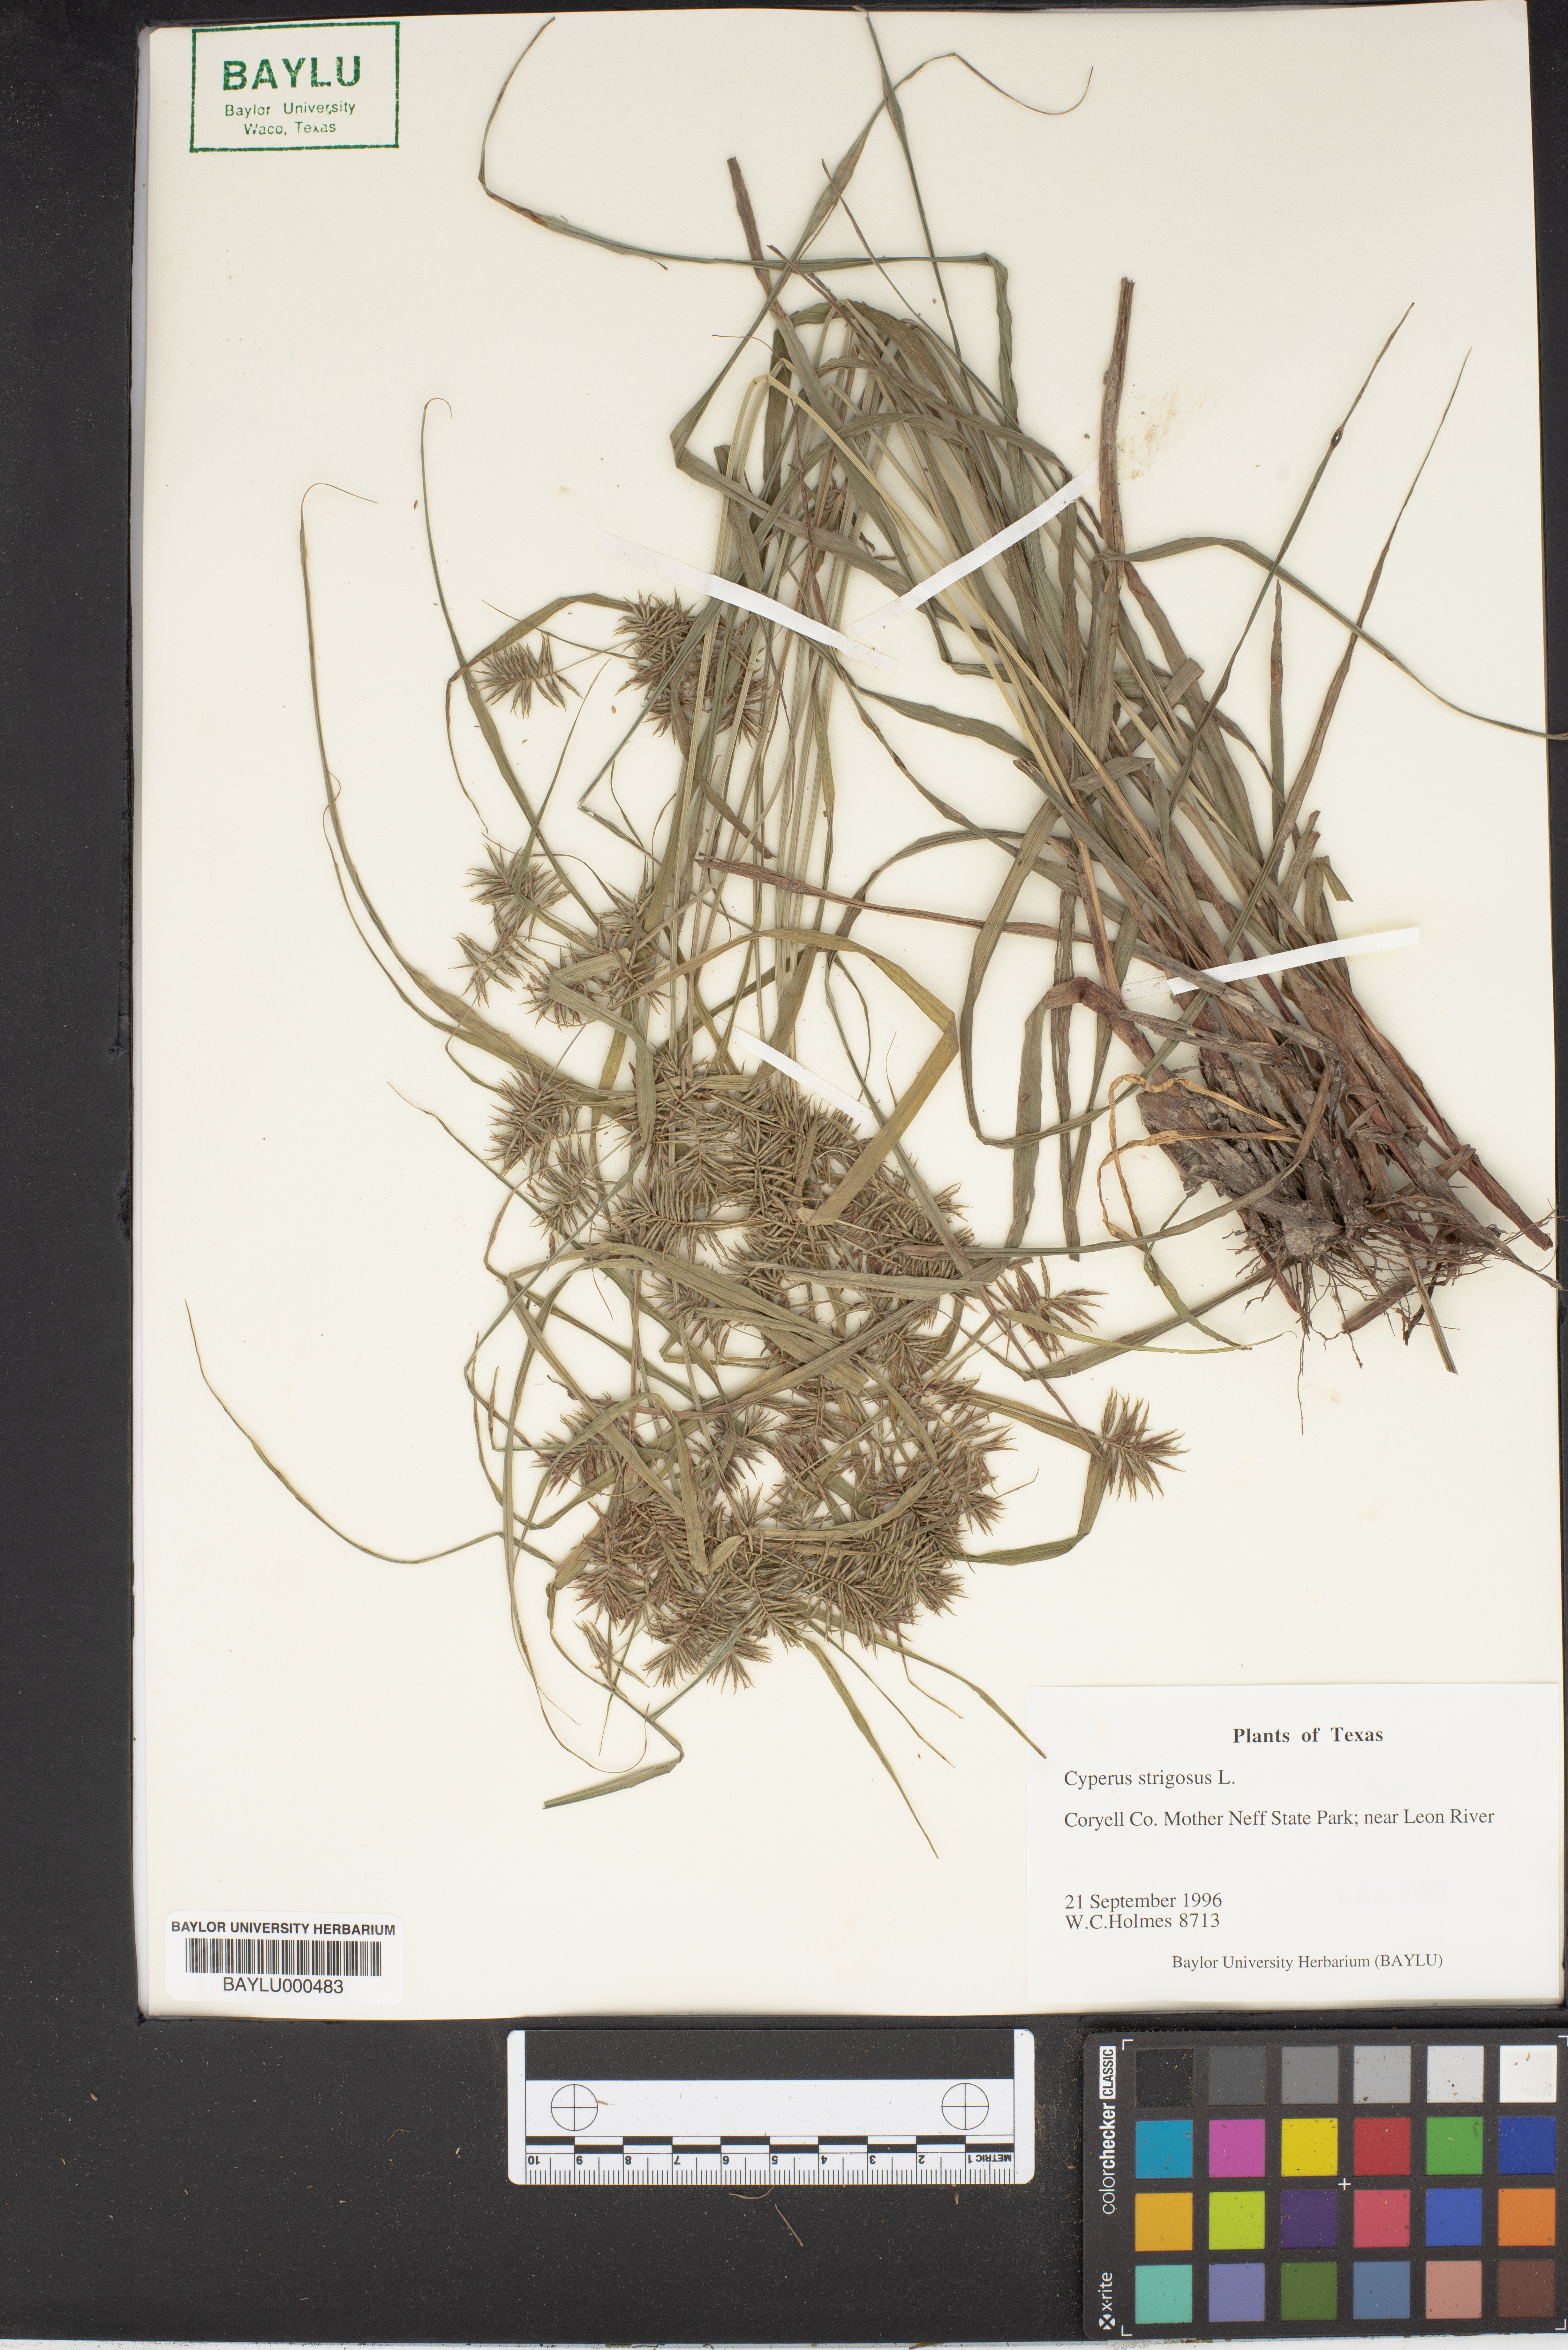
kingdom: Plantae
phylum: Tracheophyta
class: Liliopsida
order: Poales
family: Cyperaceae
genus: Cyperus
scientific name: Cyperus strigosus
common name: False nutsedge
